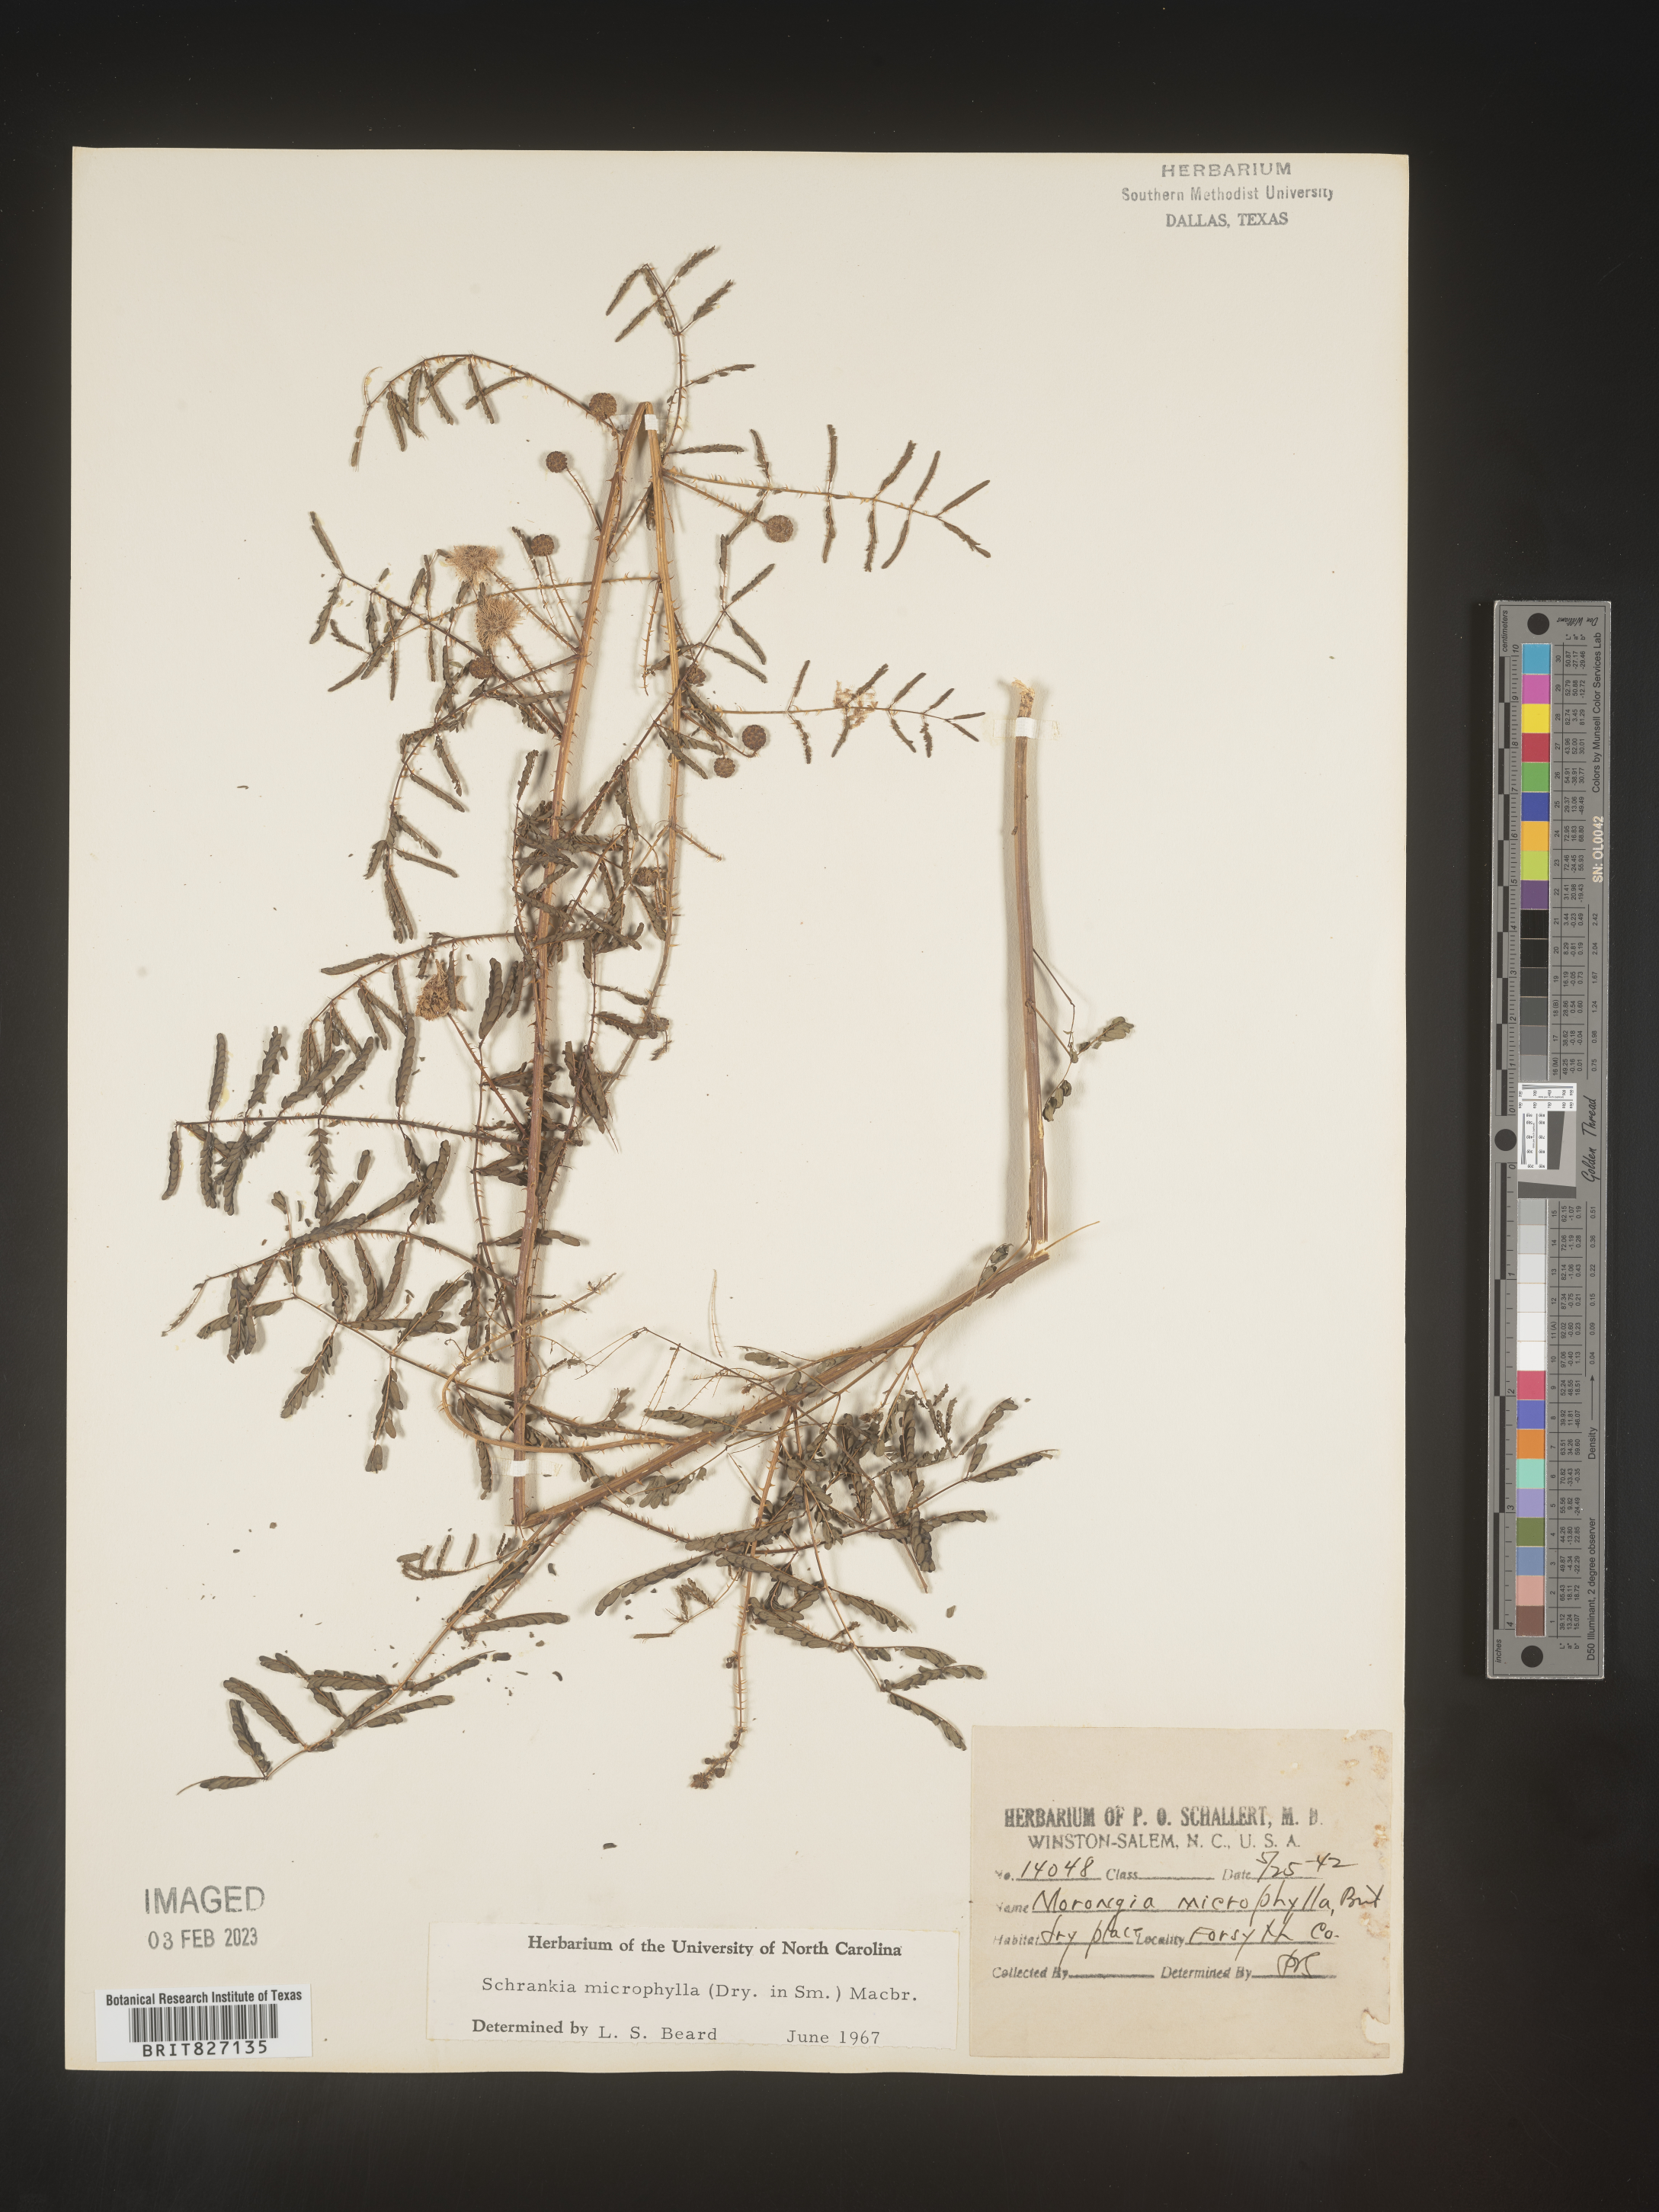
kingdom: Plantae
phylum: Tracheophyta
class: Magnoliopsida
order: Fabales
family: Fabaceae
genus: Mimosa
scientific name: Mimosa quadrivalvis
